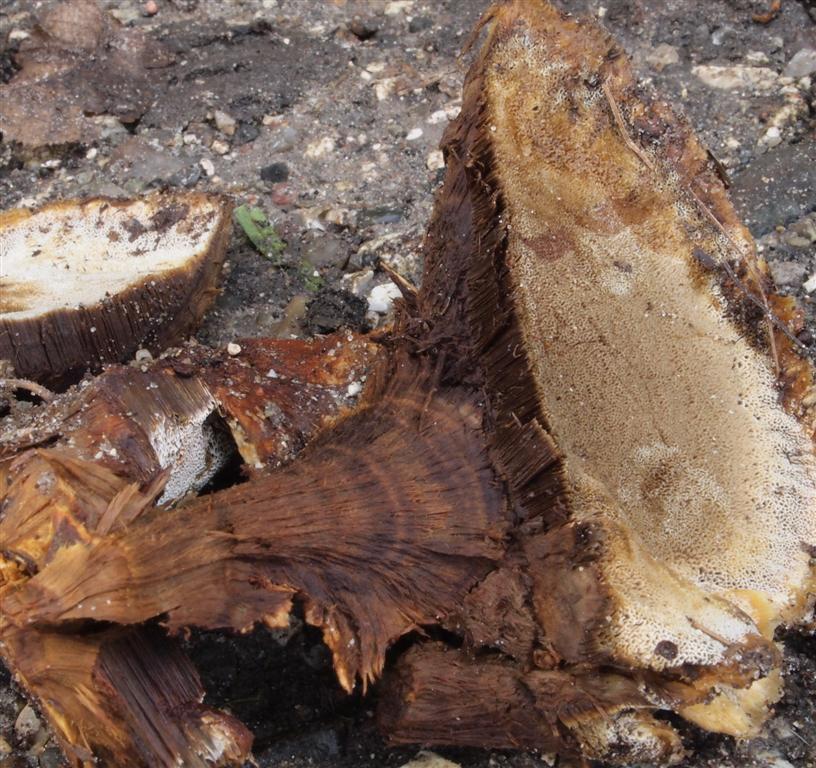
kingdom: Fungi
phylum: Basidiomycota
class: Agaricomycetes
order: Hymenochaetales
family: Hymenochaetaceae
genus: Inonotus
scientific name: Inonotus cuticularis
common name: kroghåret spejlporesvamp
